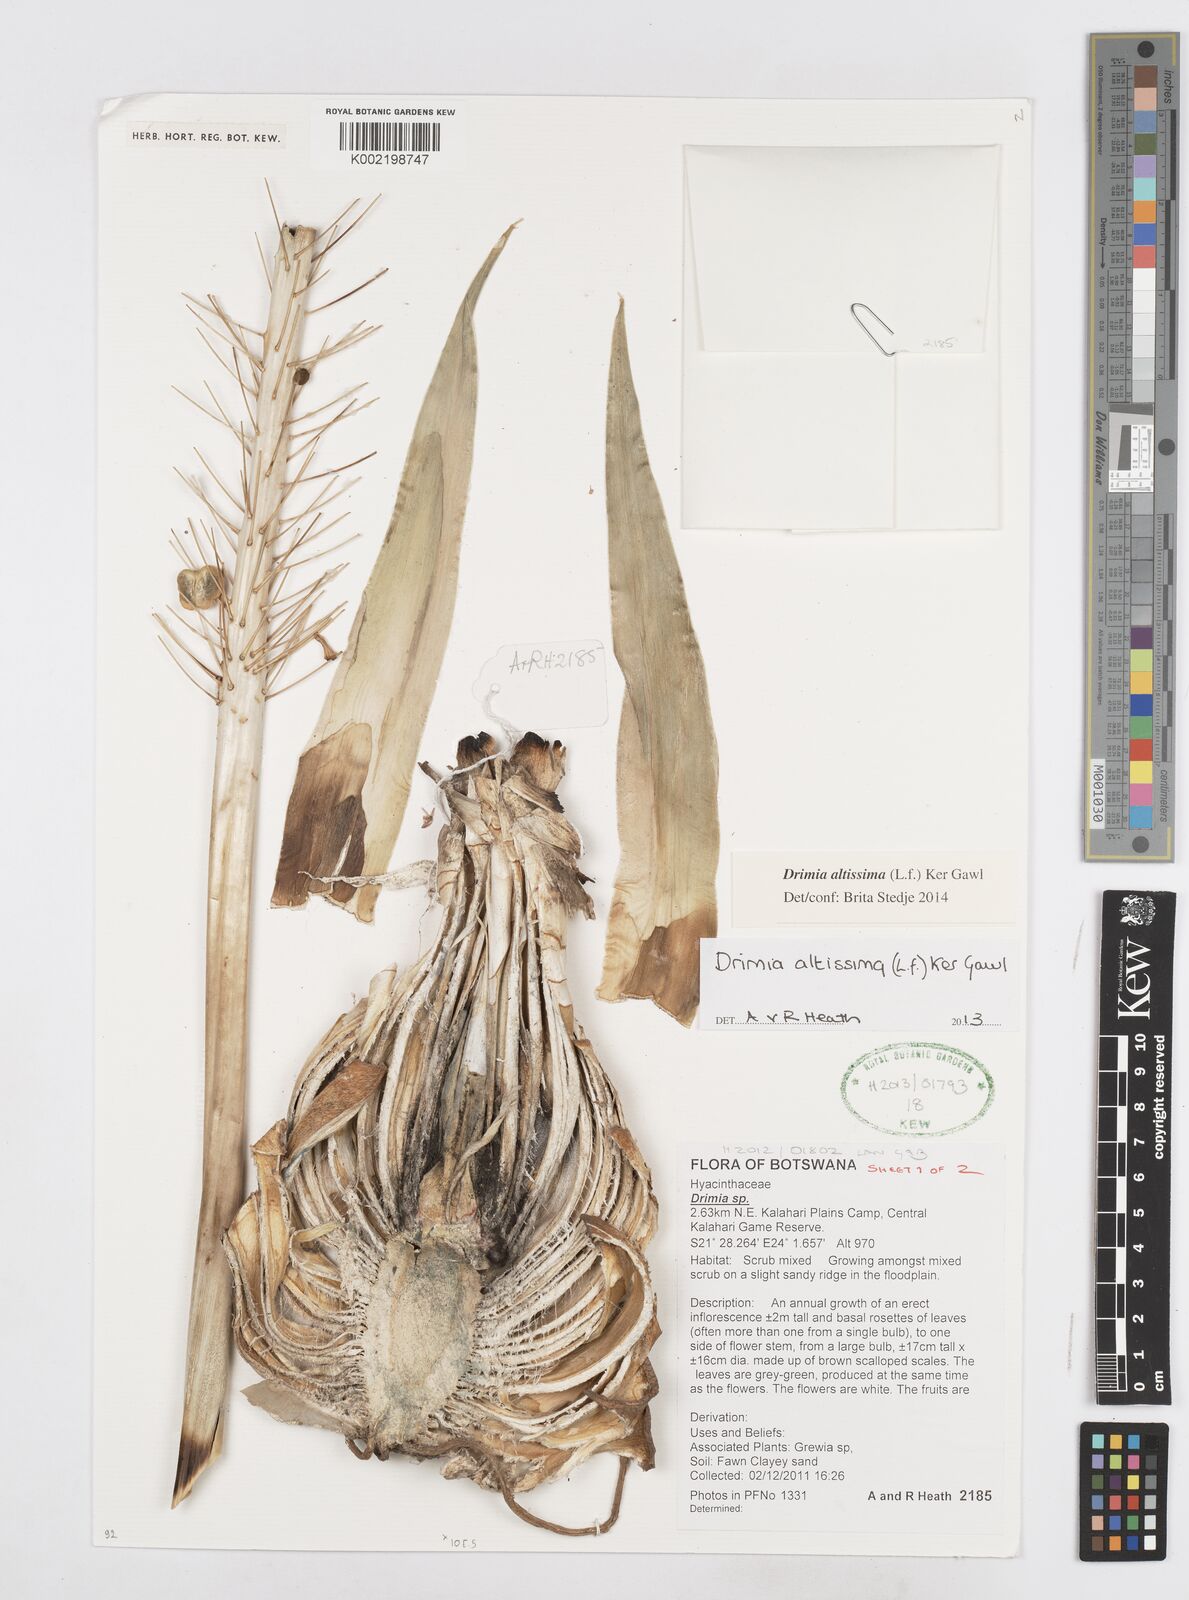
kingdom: Plantae
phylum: Tracheophyta
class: Liliopsida
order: Asparagales
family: Asparagaceae
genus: Drimia
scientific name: Drimia altissima
